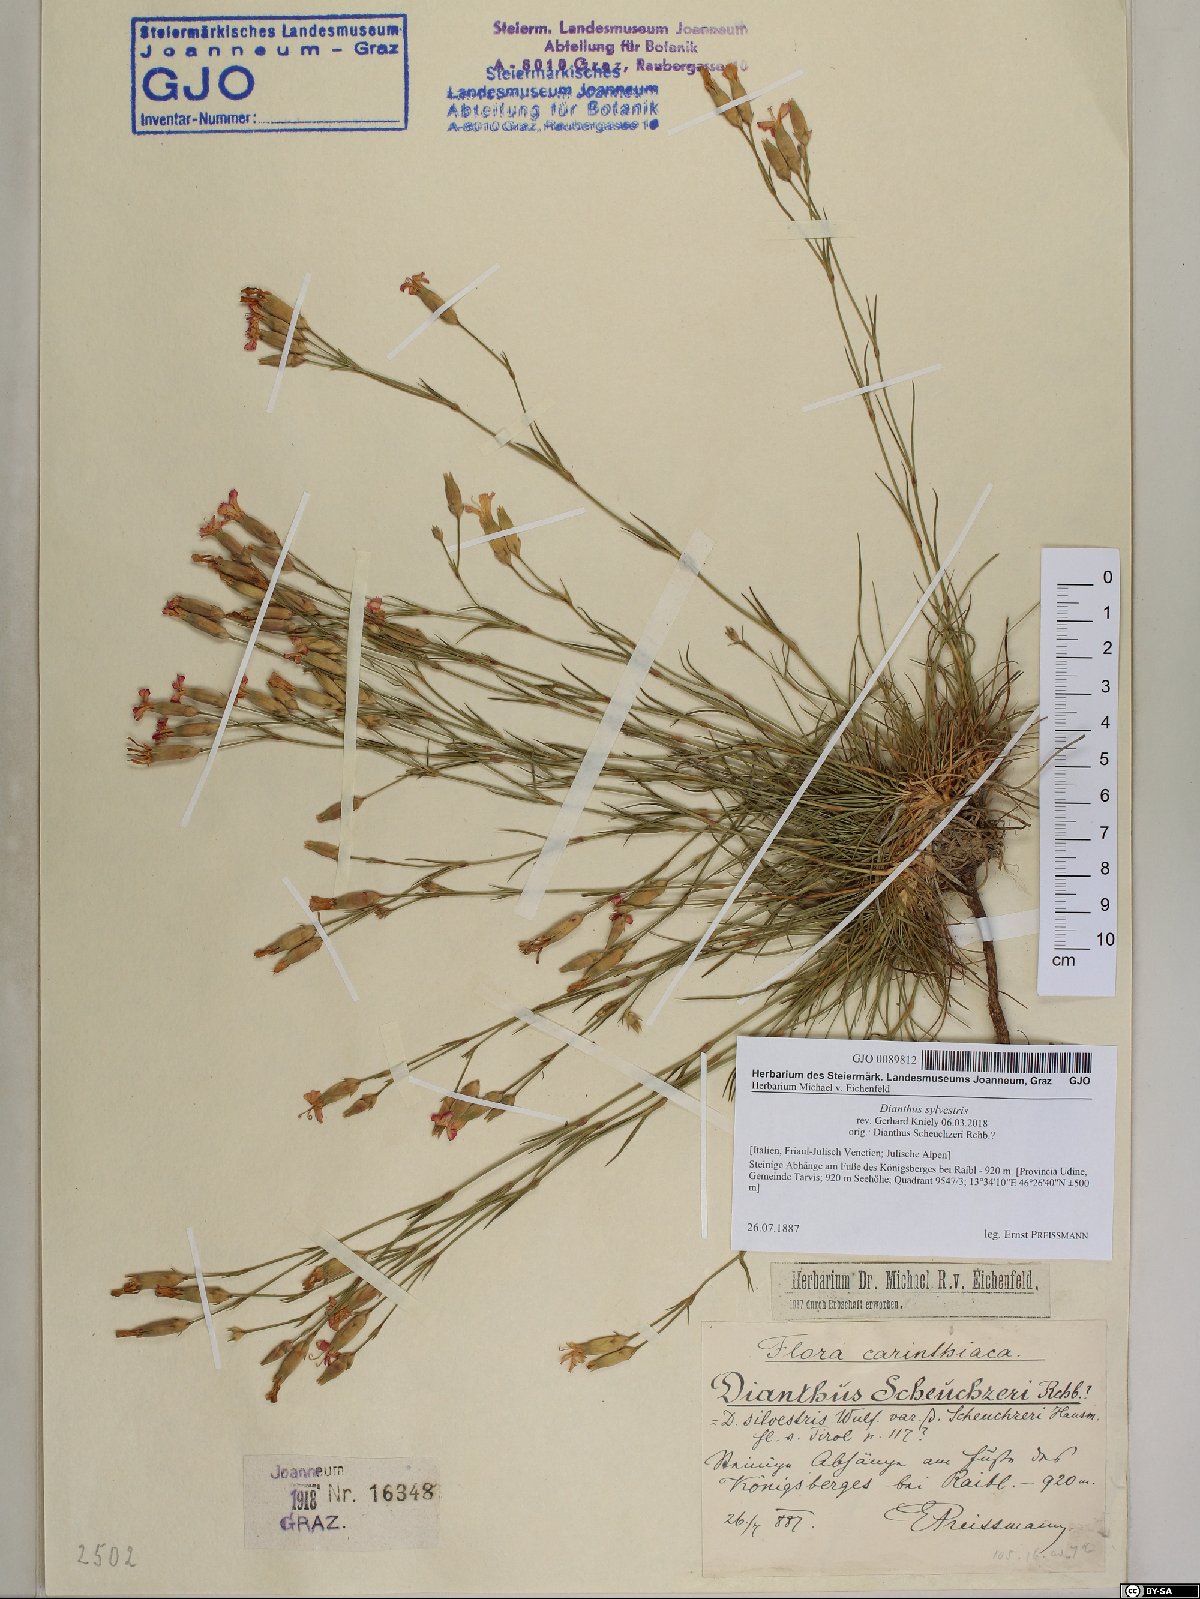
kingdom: Plantae
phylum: Tracheophyta
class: Magnoliopsida
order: Caryophyllales
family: Caryophyllaceae
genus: Dianthus
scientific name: Dianthus sylvestris
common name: Wood pink
